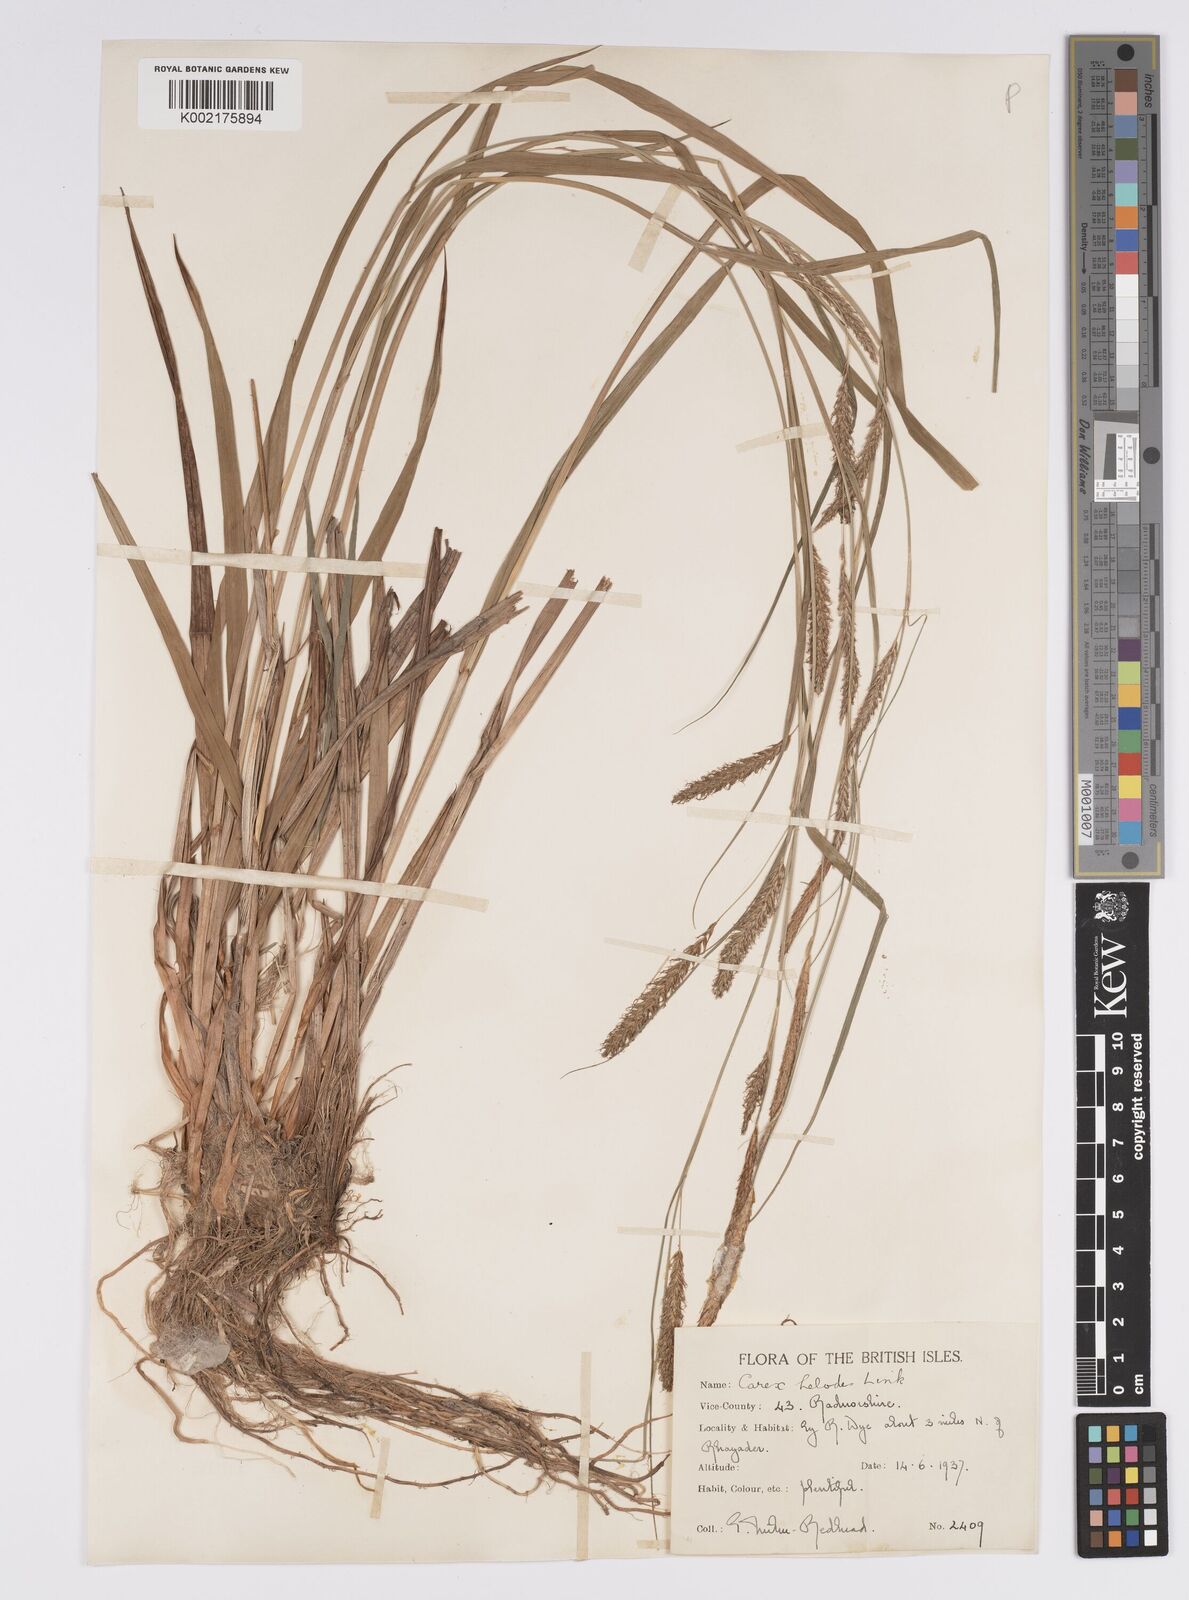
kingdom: Plantae
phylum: Tracheophyta
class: Liliopsida
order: Poales
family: Cyperaceae
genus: Carex
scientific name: Carex laevigata
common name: Smooth-stalked sedge
